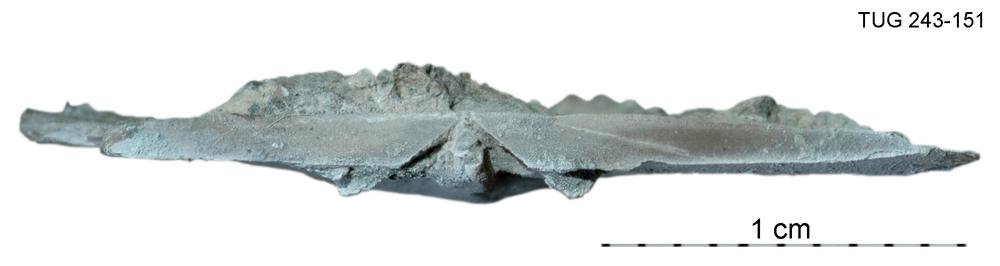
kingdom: Animalia
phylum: Brachiopoda
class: Rhynchonellata
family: Orthidae
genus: Cyrtonotella
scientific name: Cyrtonotella Orthis kuckersiana
